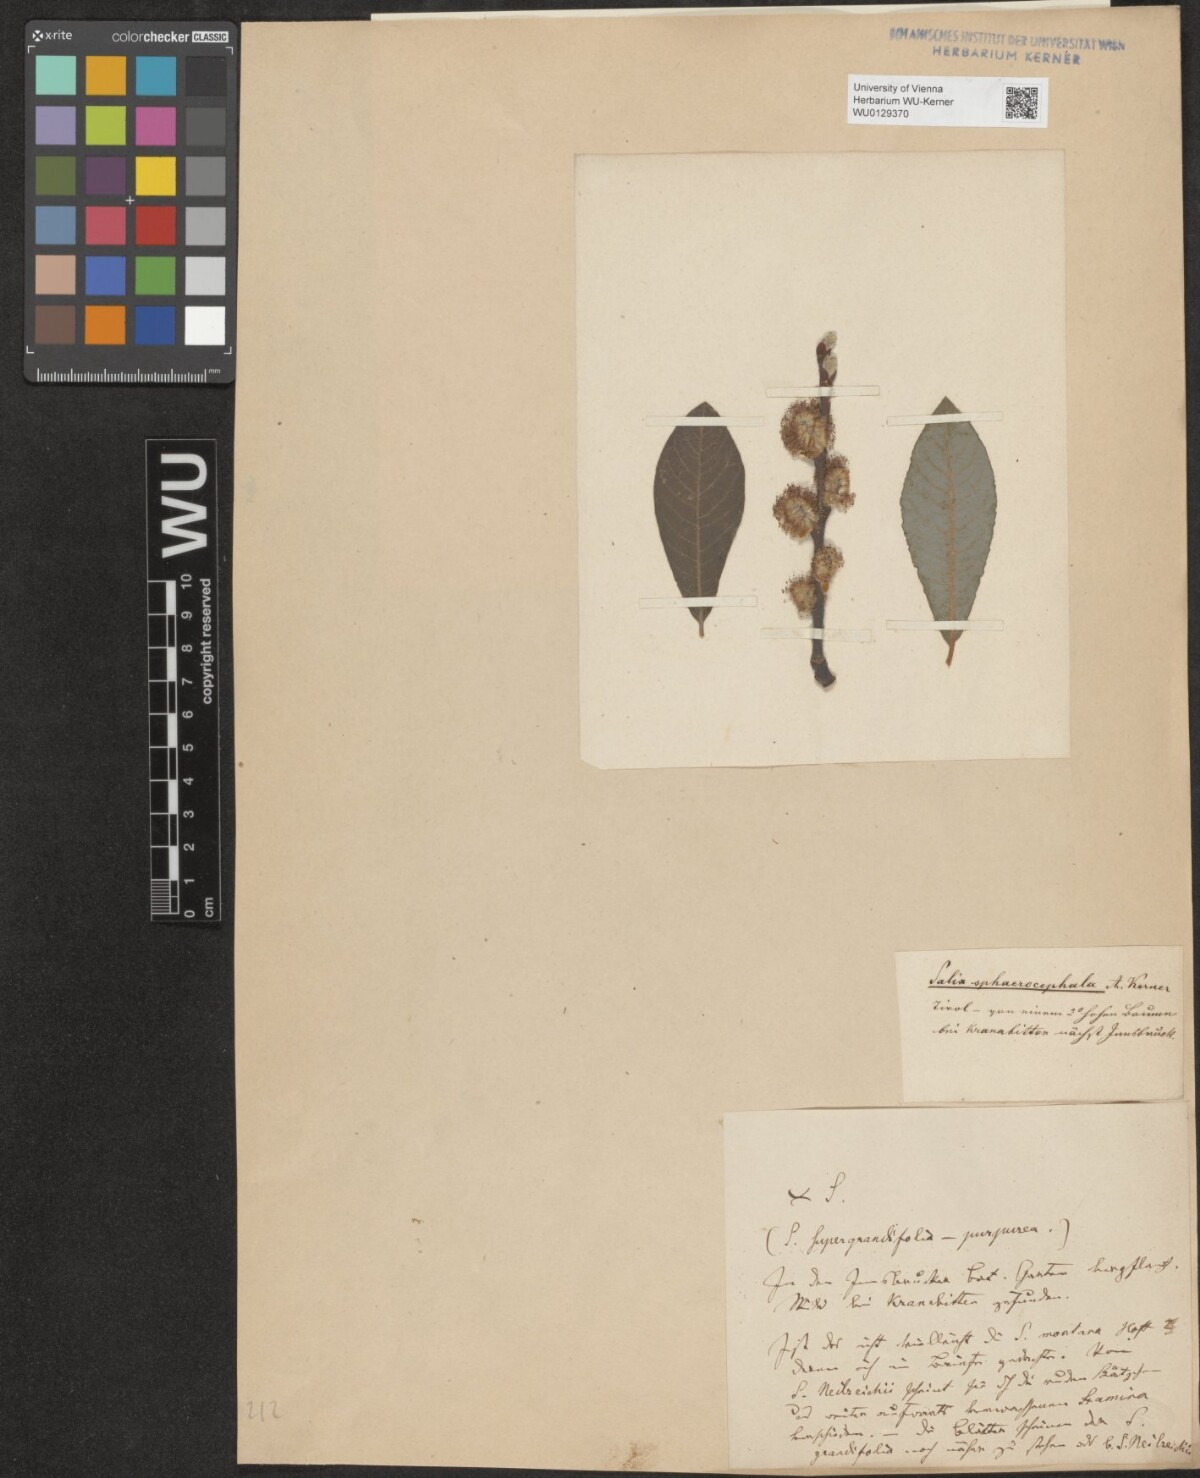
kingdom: Plantae
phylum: Tracheophyta
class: Magnoliopsida
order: Malpighiales
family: Salicaceae
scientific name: Salicaceae
